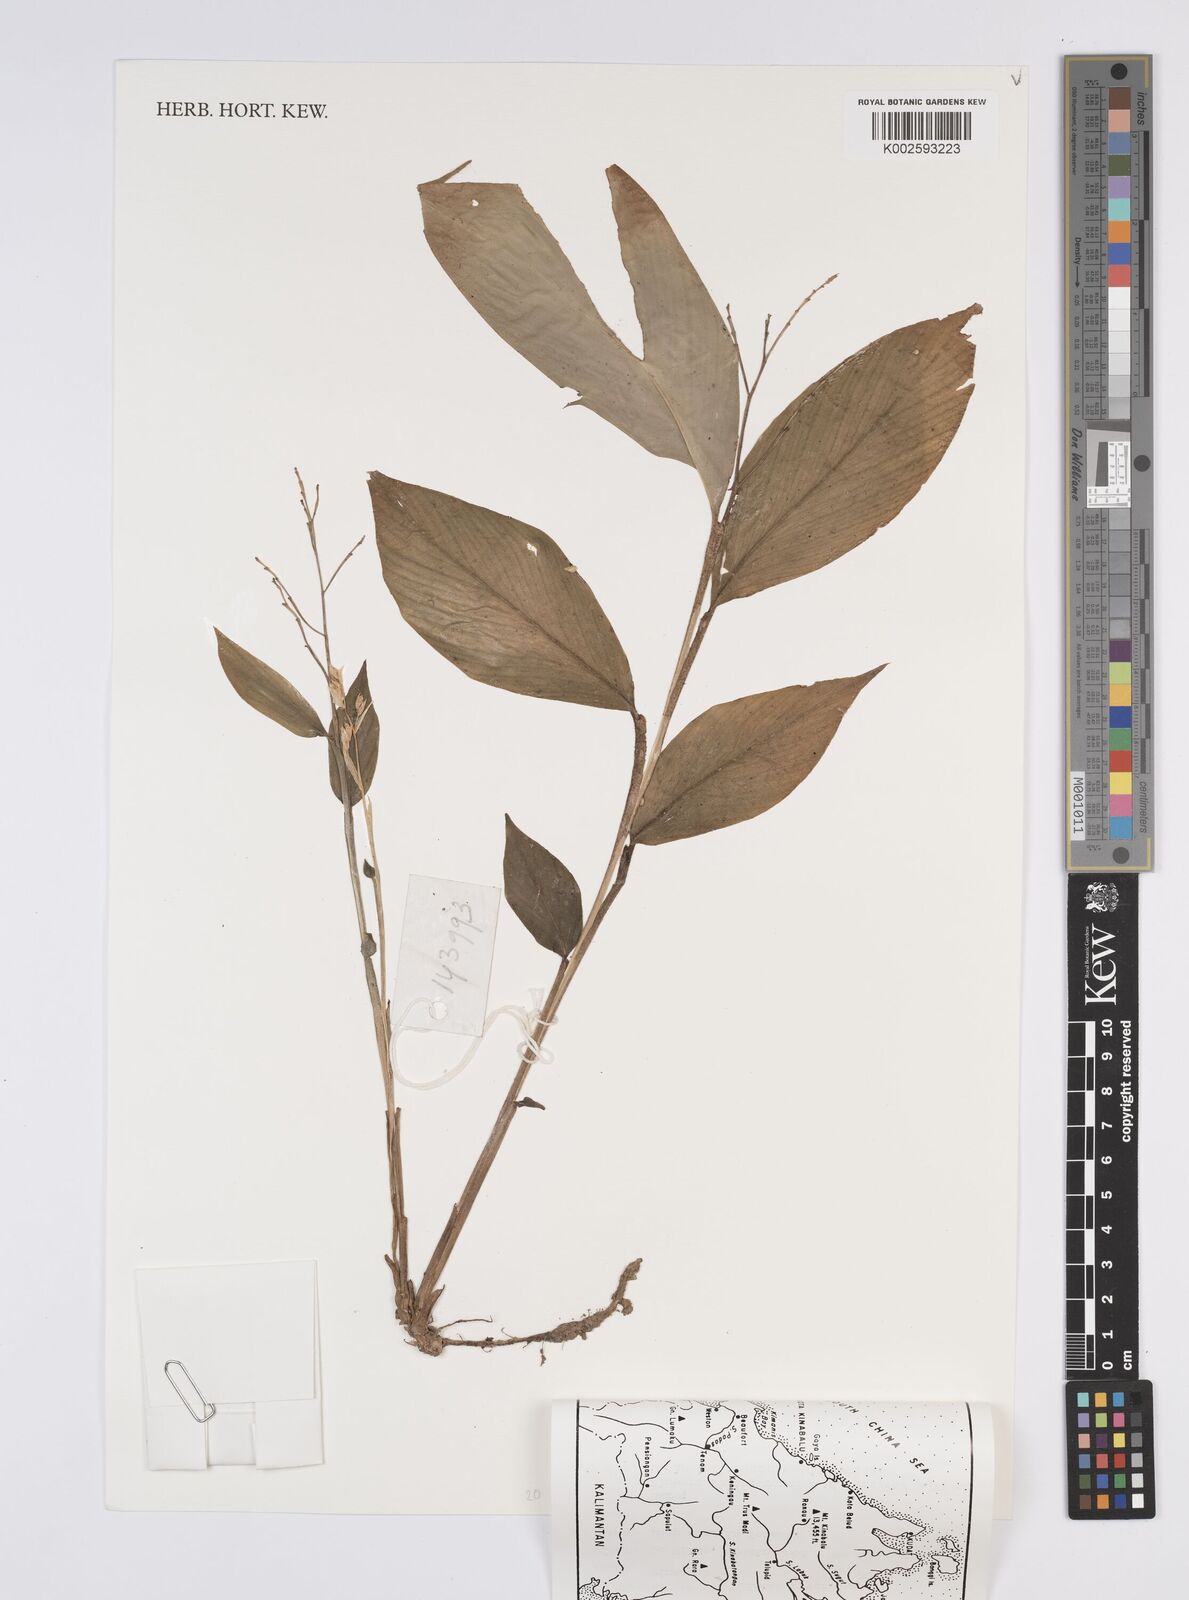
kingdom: Plantae
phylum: Tracheophyta
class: Liliopsida
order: Zingiberales
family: Zingiberaceae
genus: Globba
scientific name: Globba
